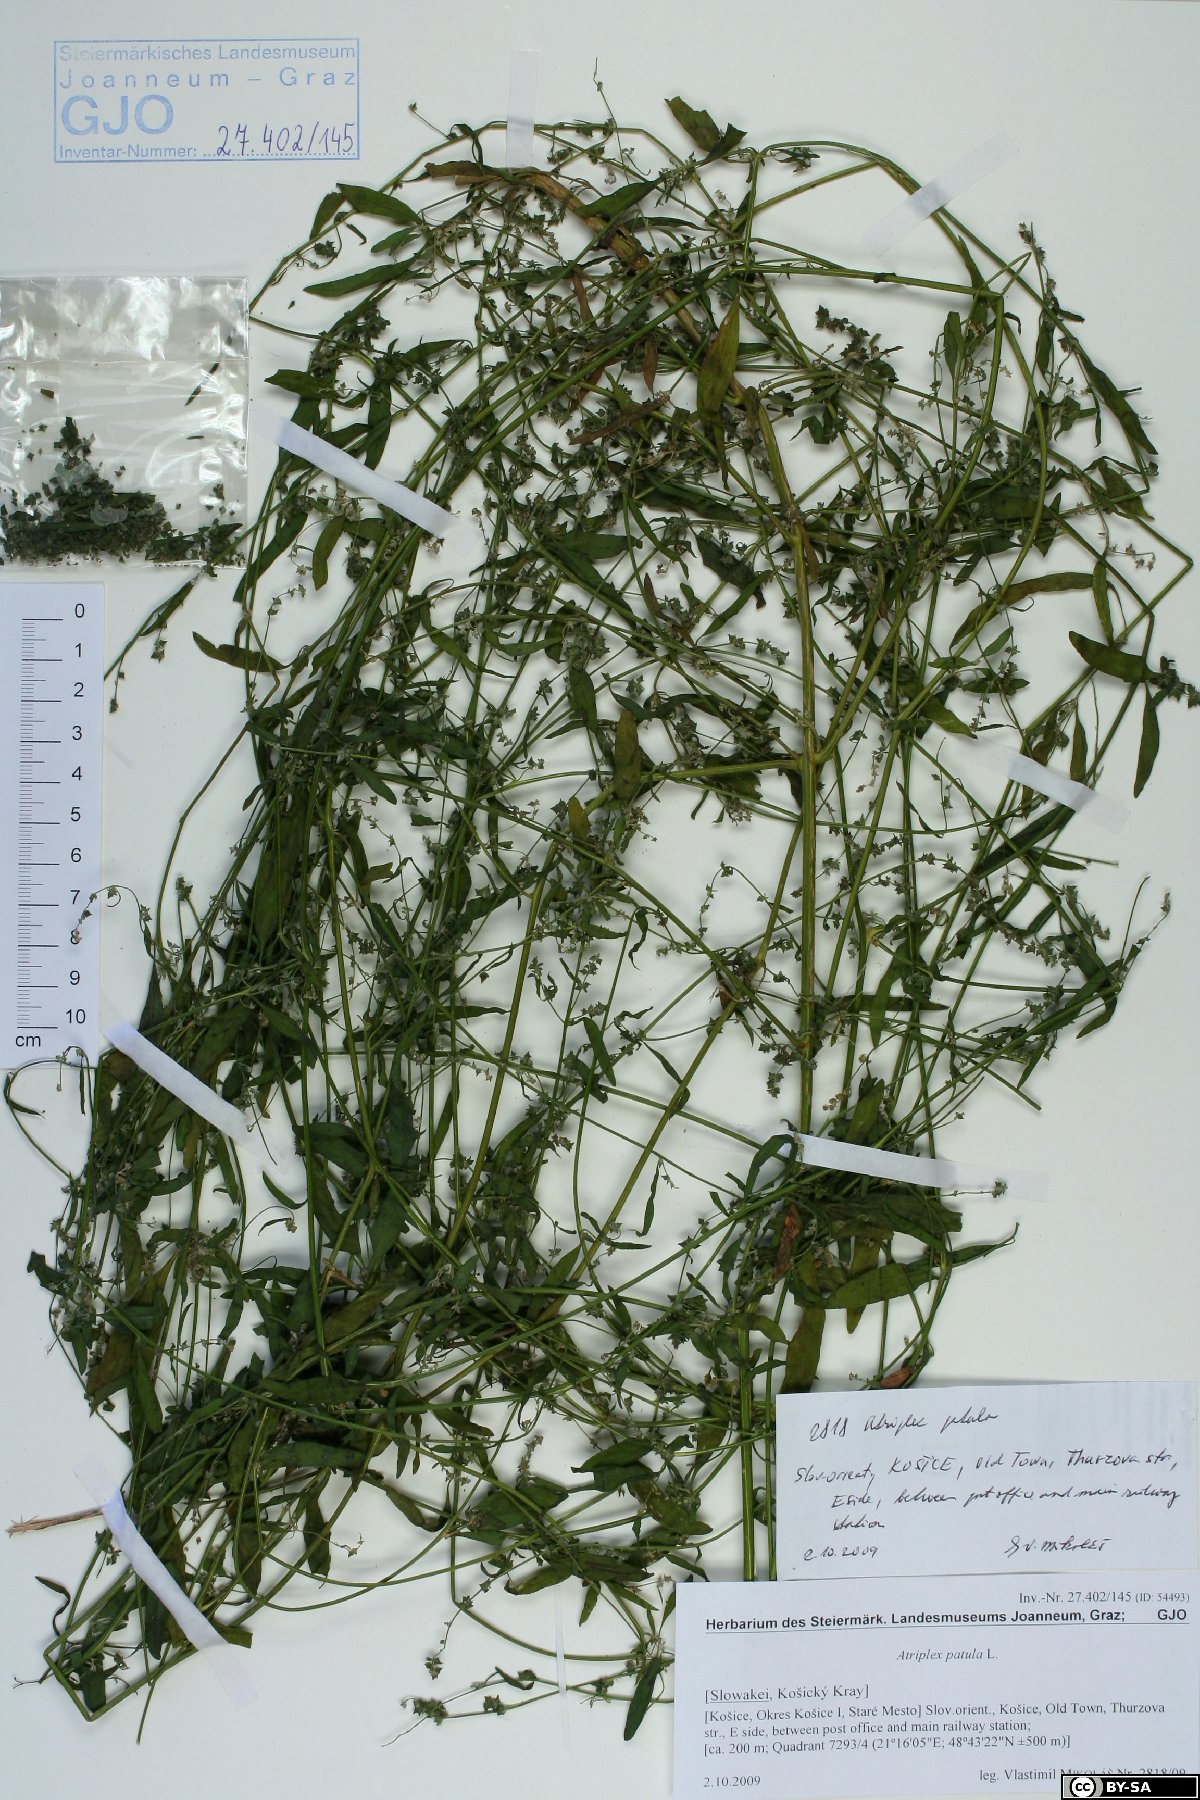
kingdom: Plantae
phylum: Tracheophyta
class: Magnoliopsida
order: Caryophyllales
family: Amaranthaceae
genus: Atriplex
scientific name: Atriplex patula
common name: Common orache
